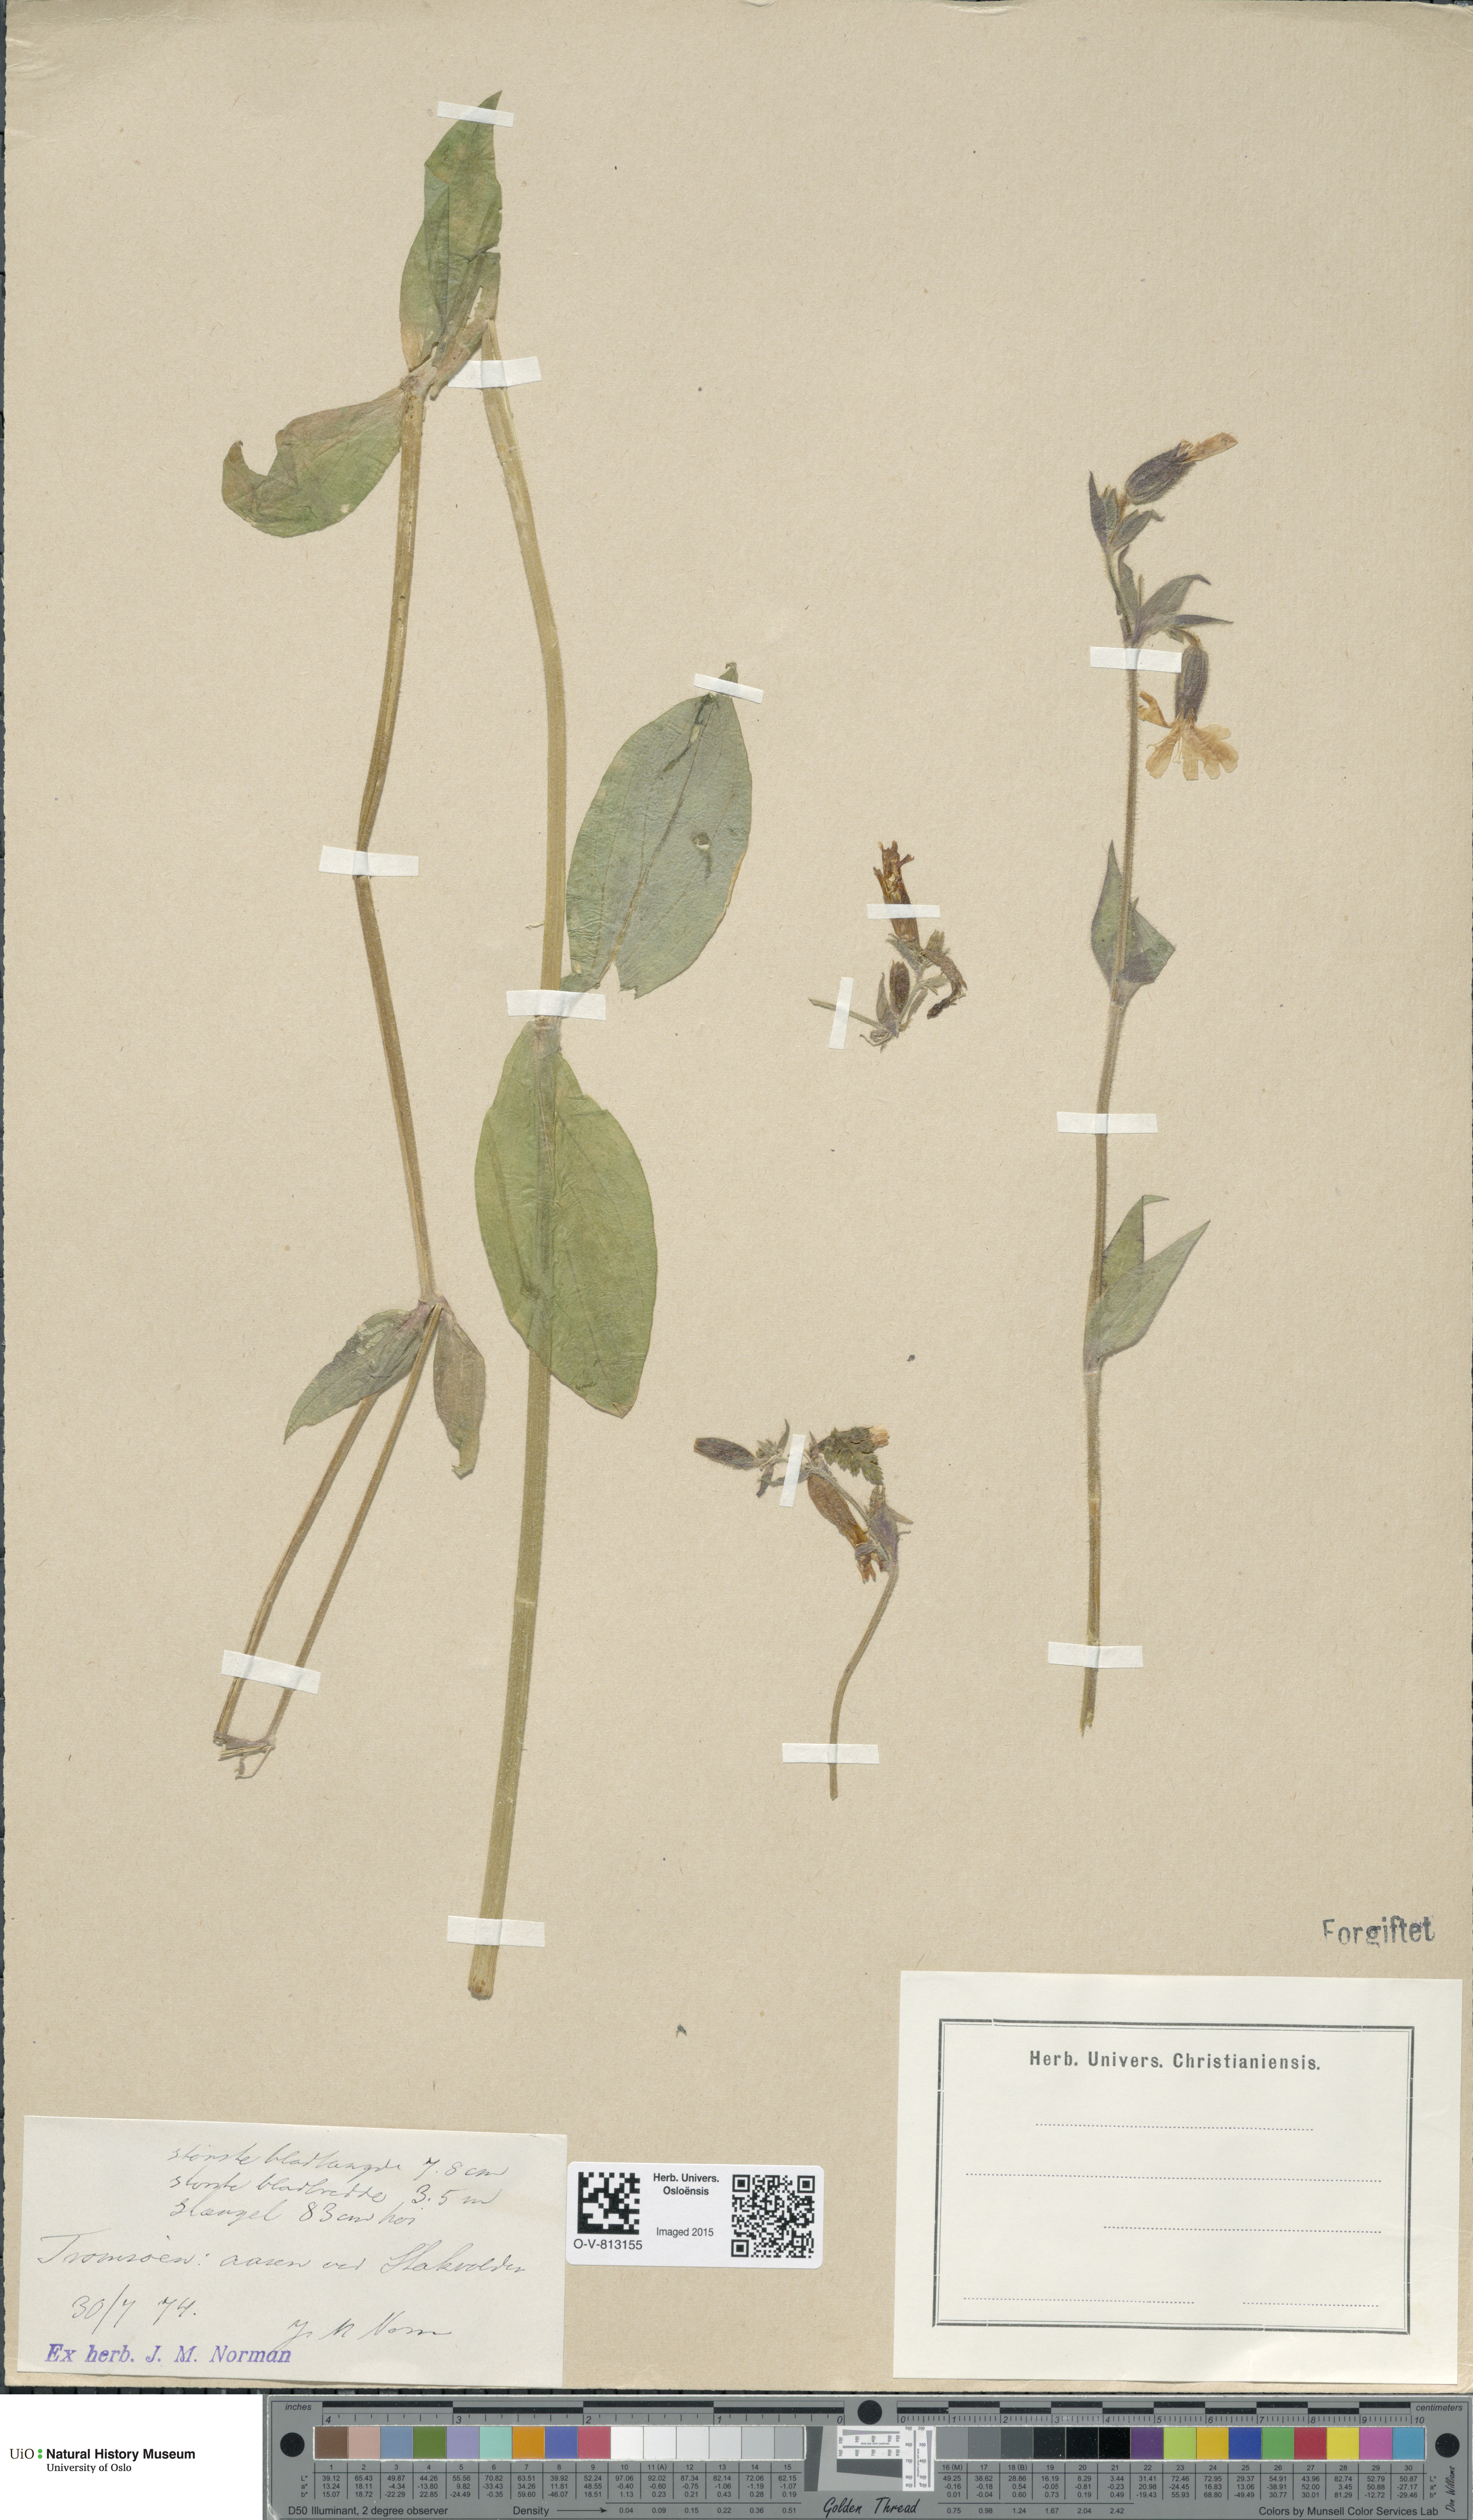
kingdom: Plantae
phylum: Tracheophyta
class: Magnoliopsida
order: Caryophyllales
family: Caryophyllaceae
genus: Silene
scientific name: Silene dioica
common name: Red campion
